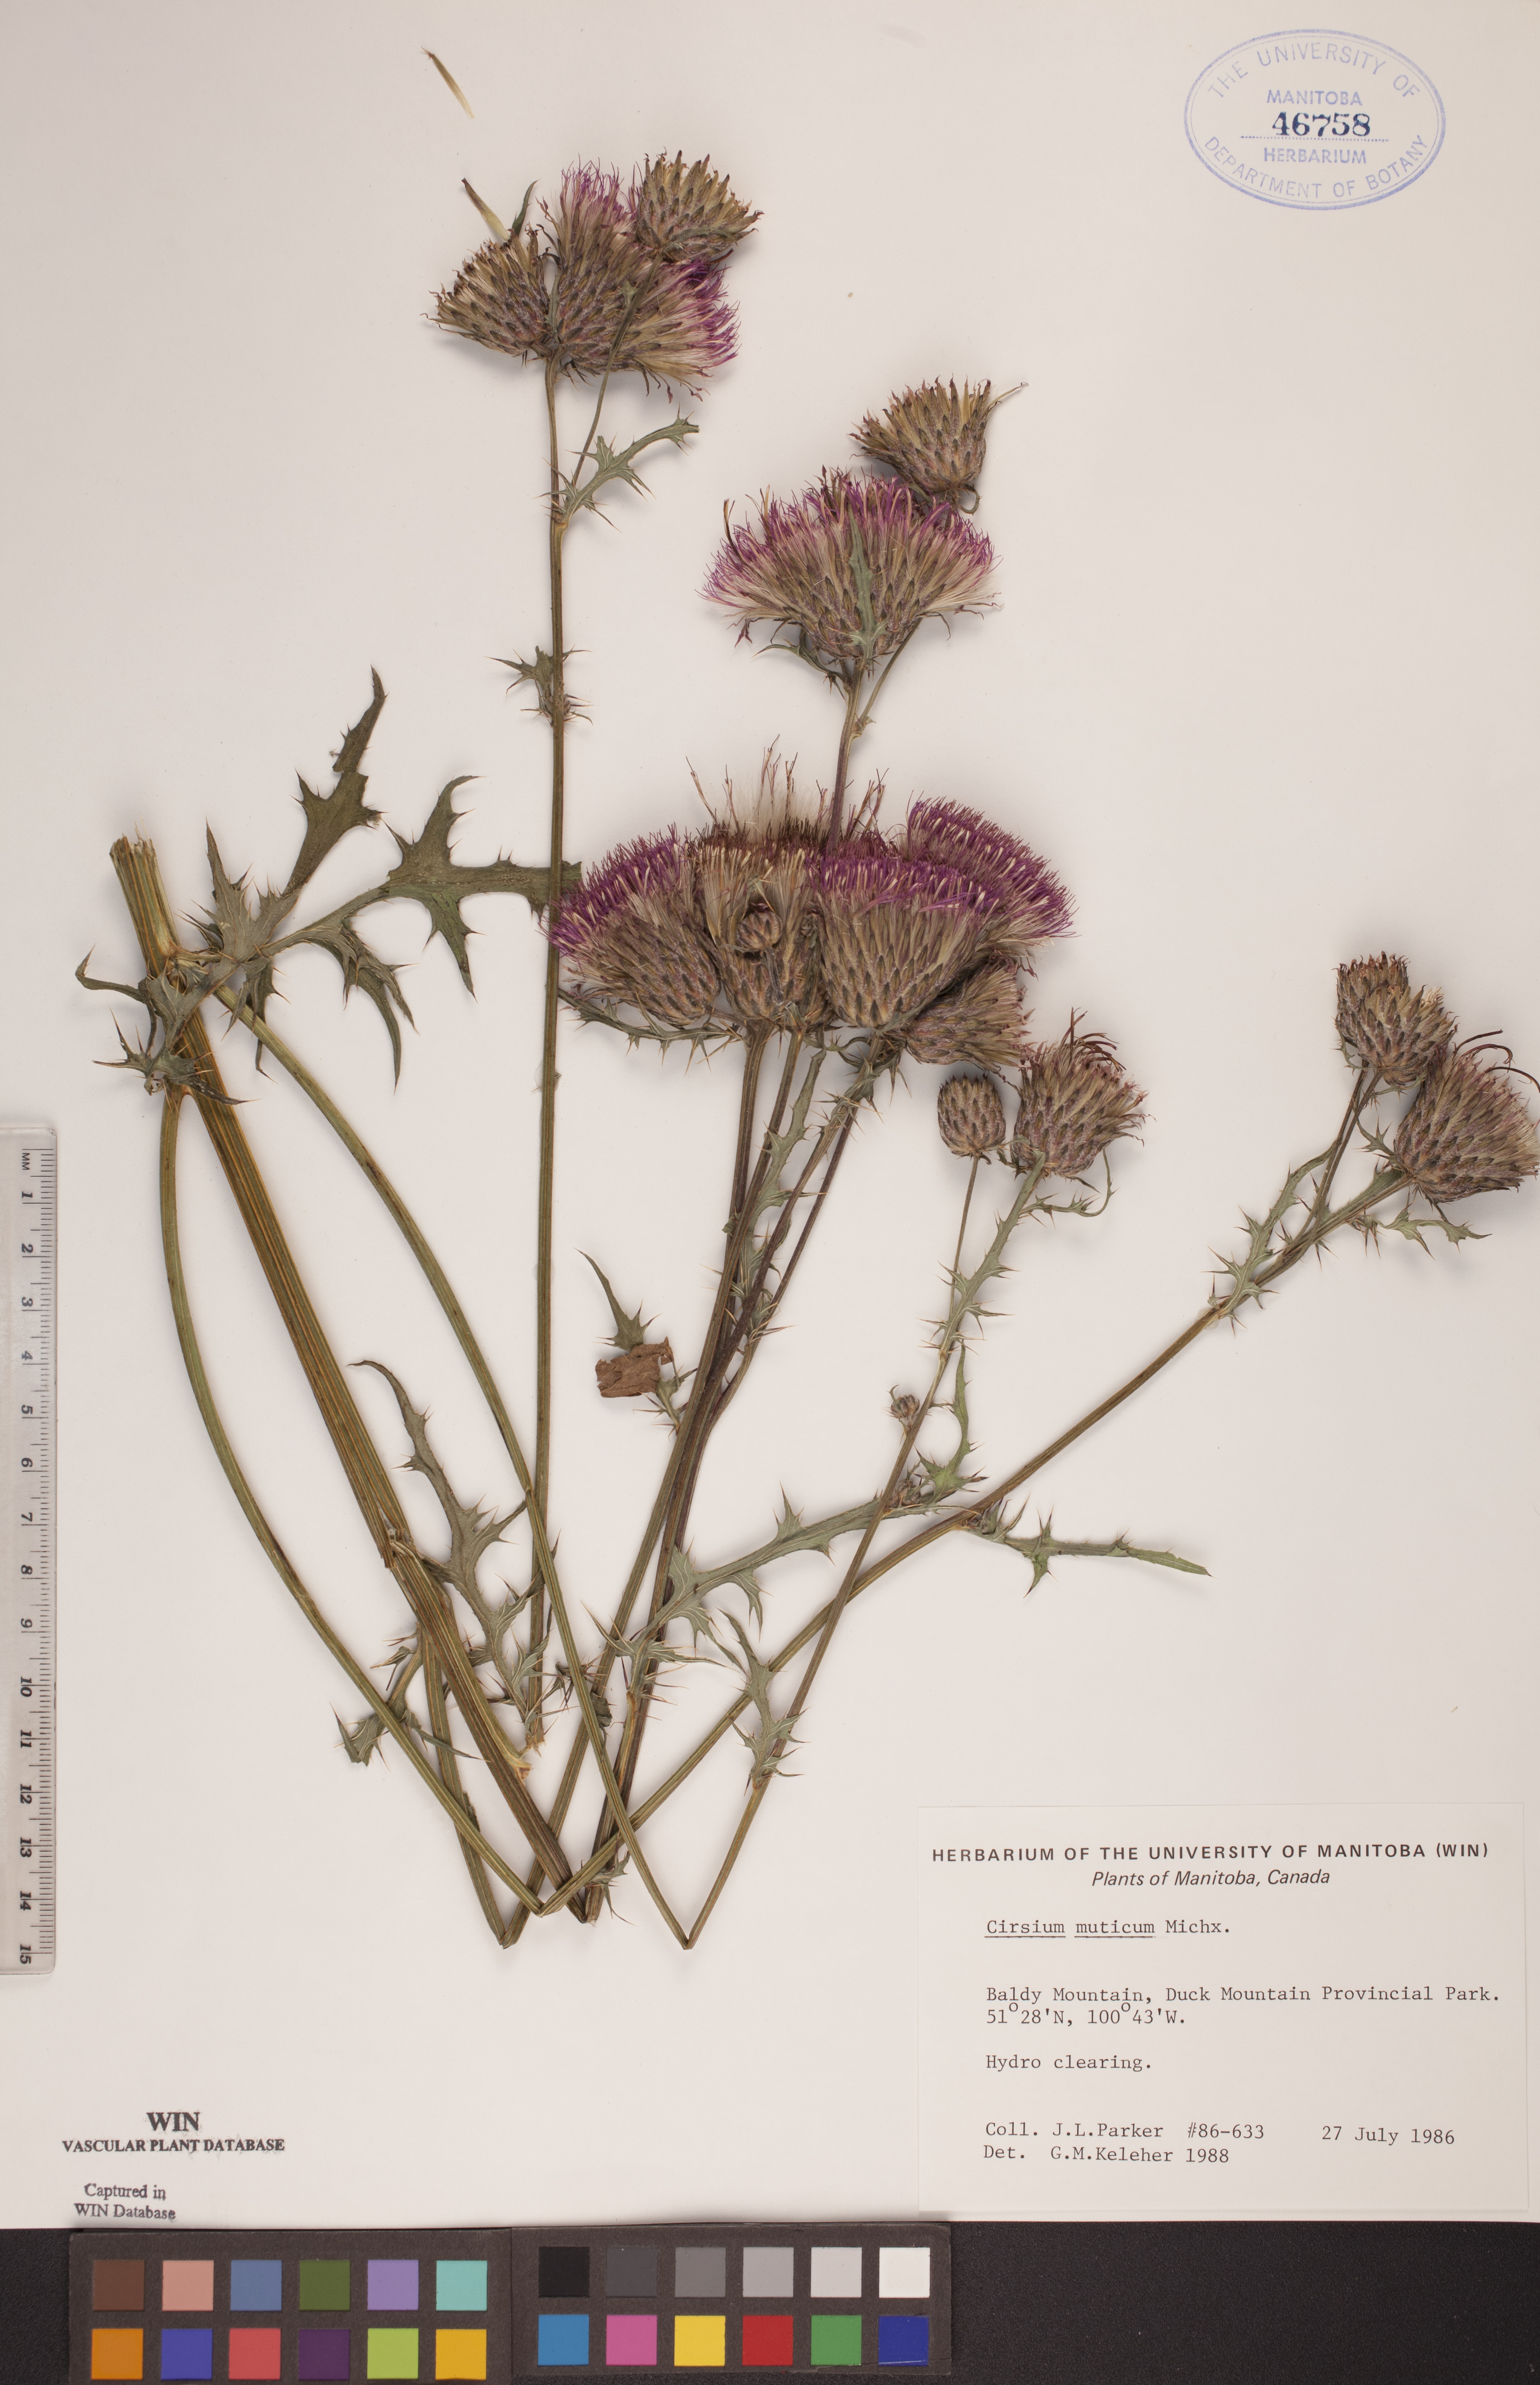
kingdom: Plantae
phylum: Tracheophyta
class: Magnoliopsida
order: Asterales
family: Asteraceae
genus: Cirsium
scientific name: Cirsium muticum
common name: Dunce-nettle
